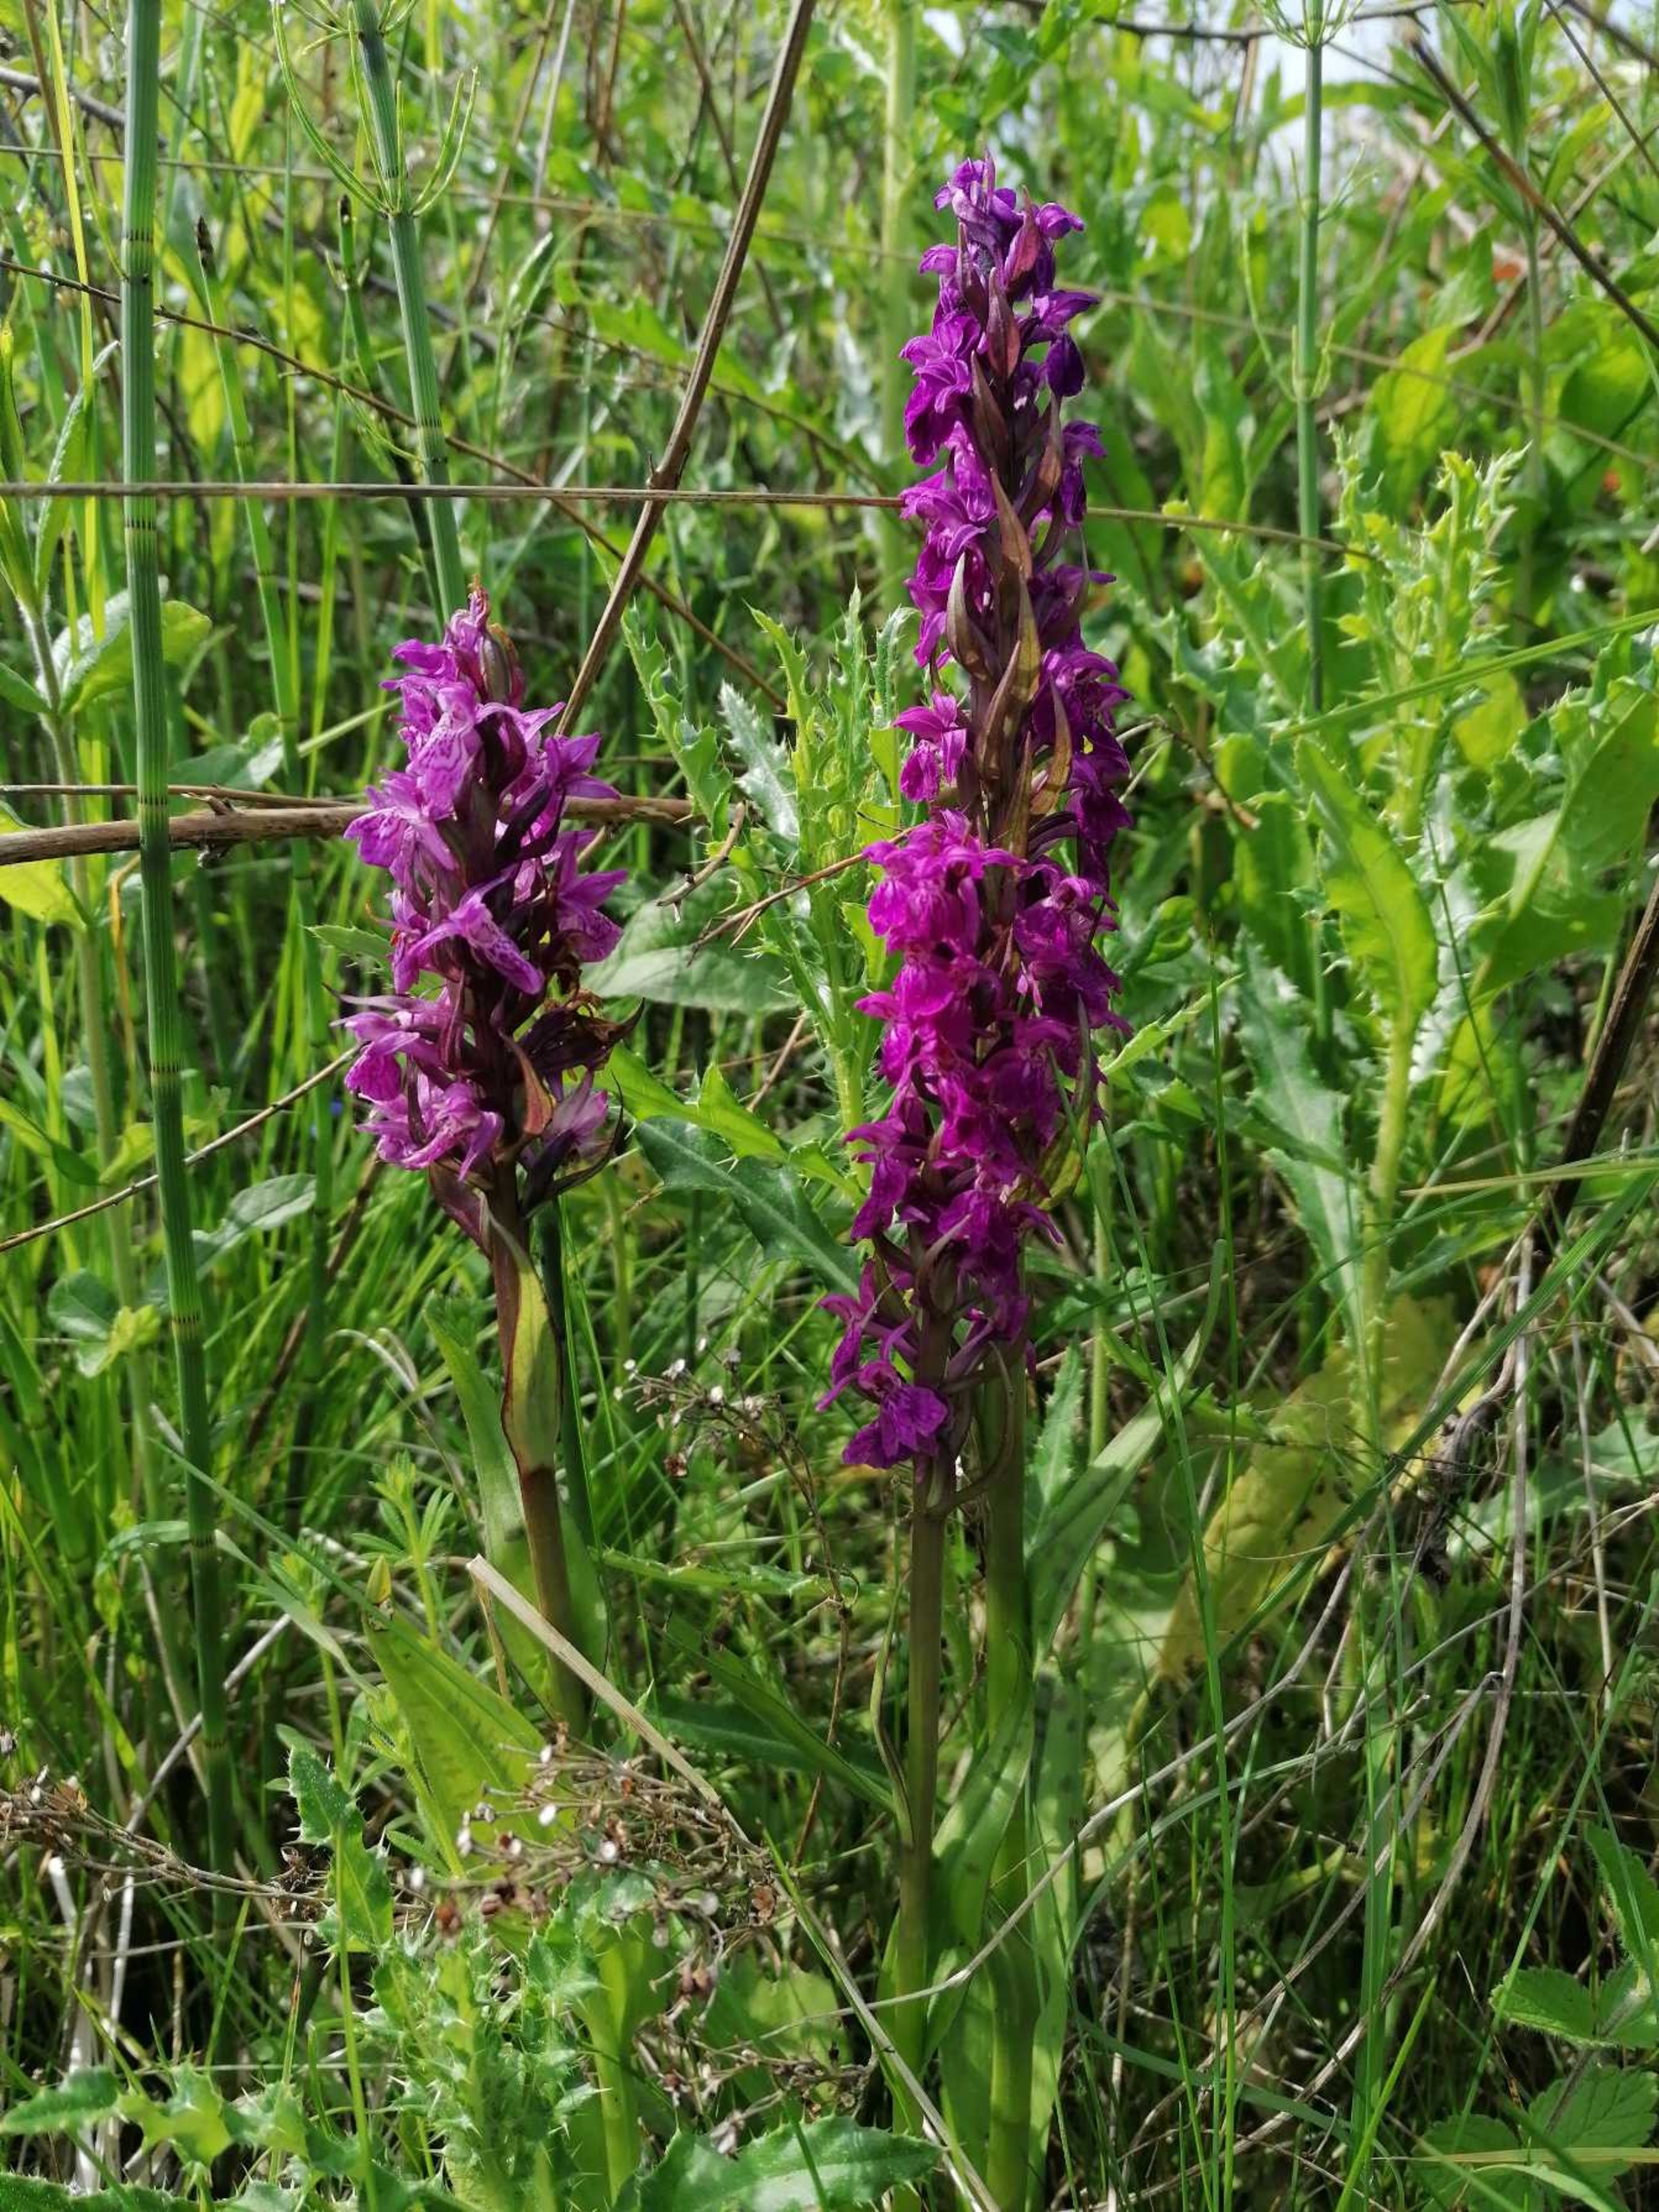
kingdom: Plantae
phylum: Tracheophyta
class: Liliopsida
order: Asparagales
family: Orchidaceae
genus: Dactylorhiza
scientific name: Dactylorhiza majalis
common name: Maj-gøgeurt
